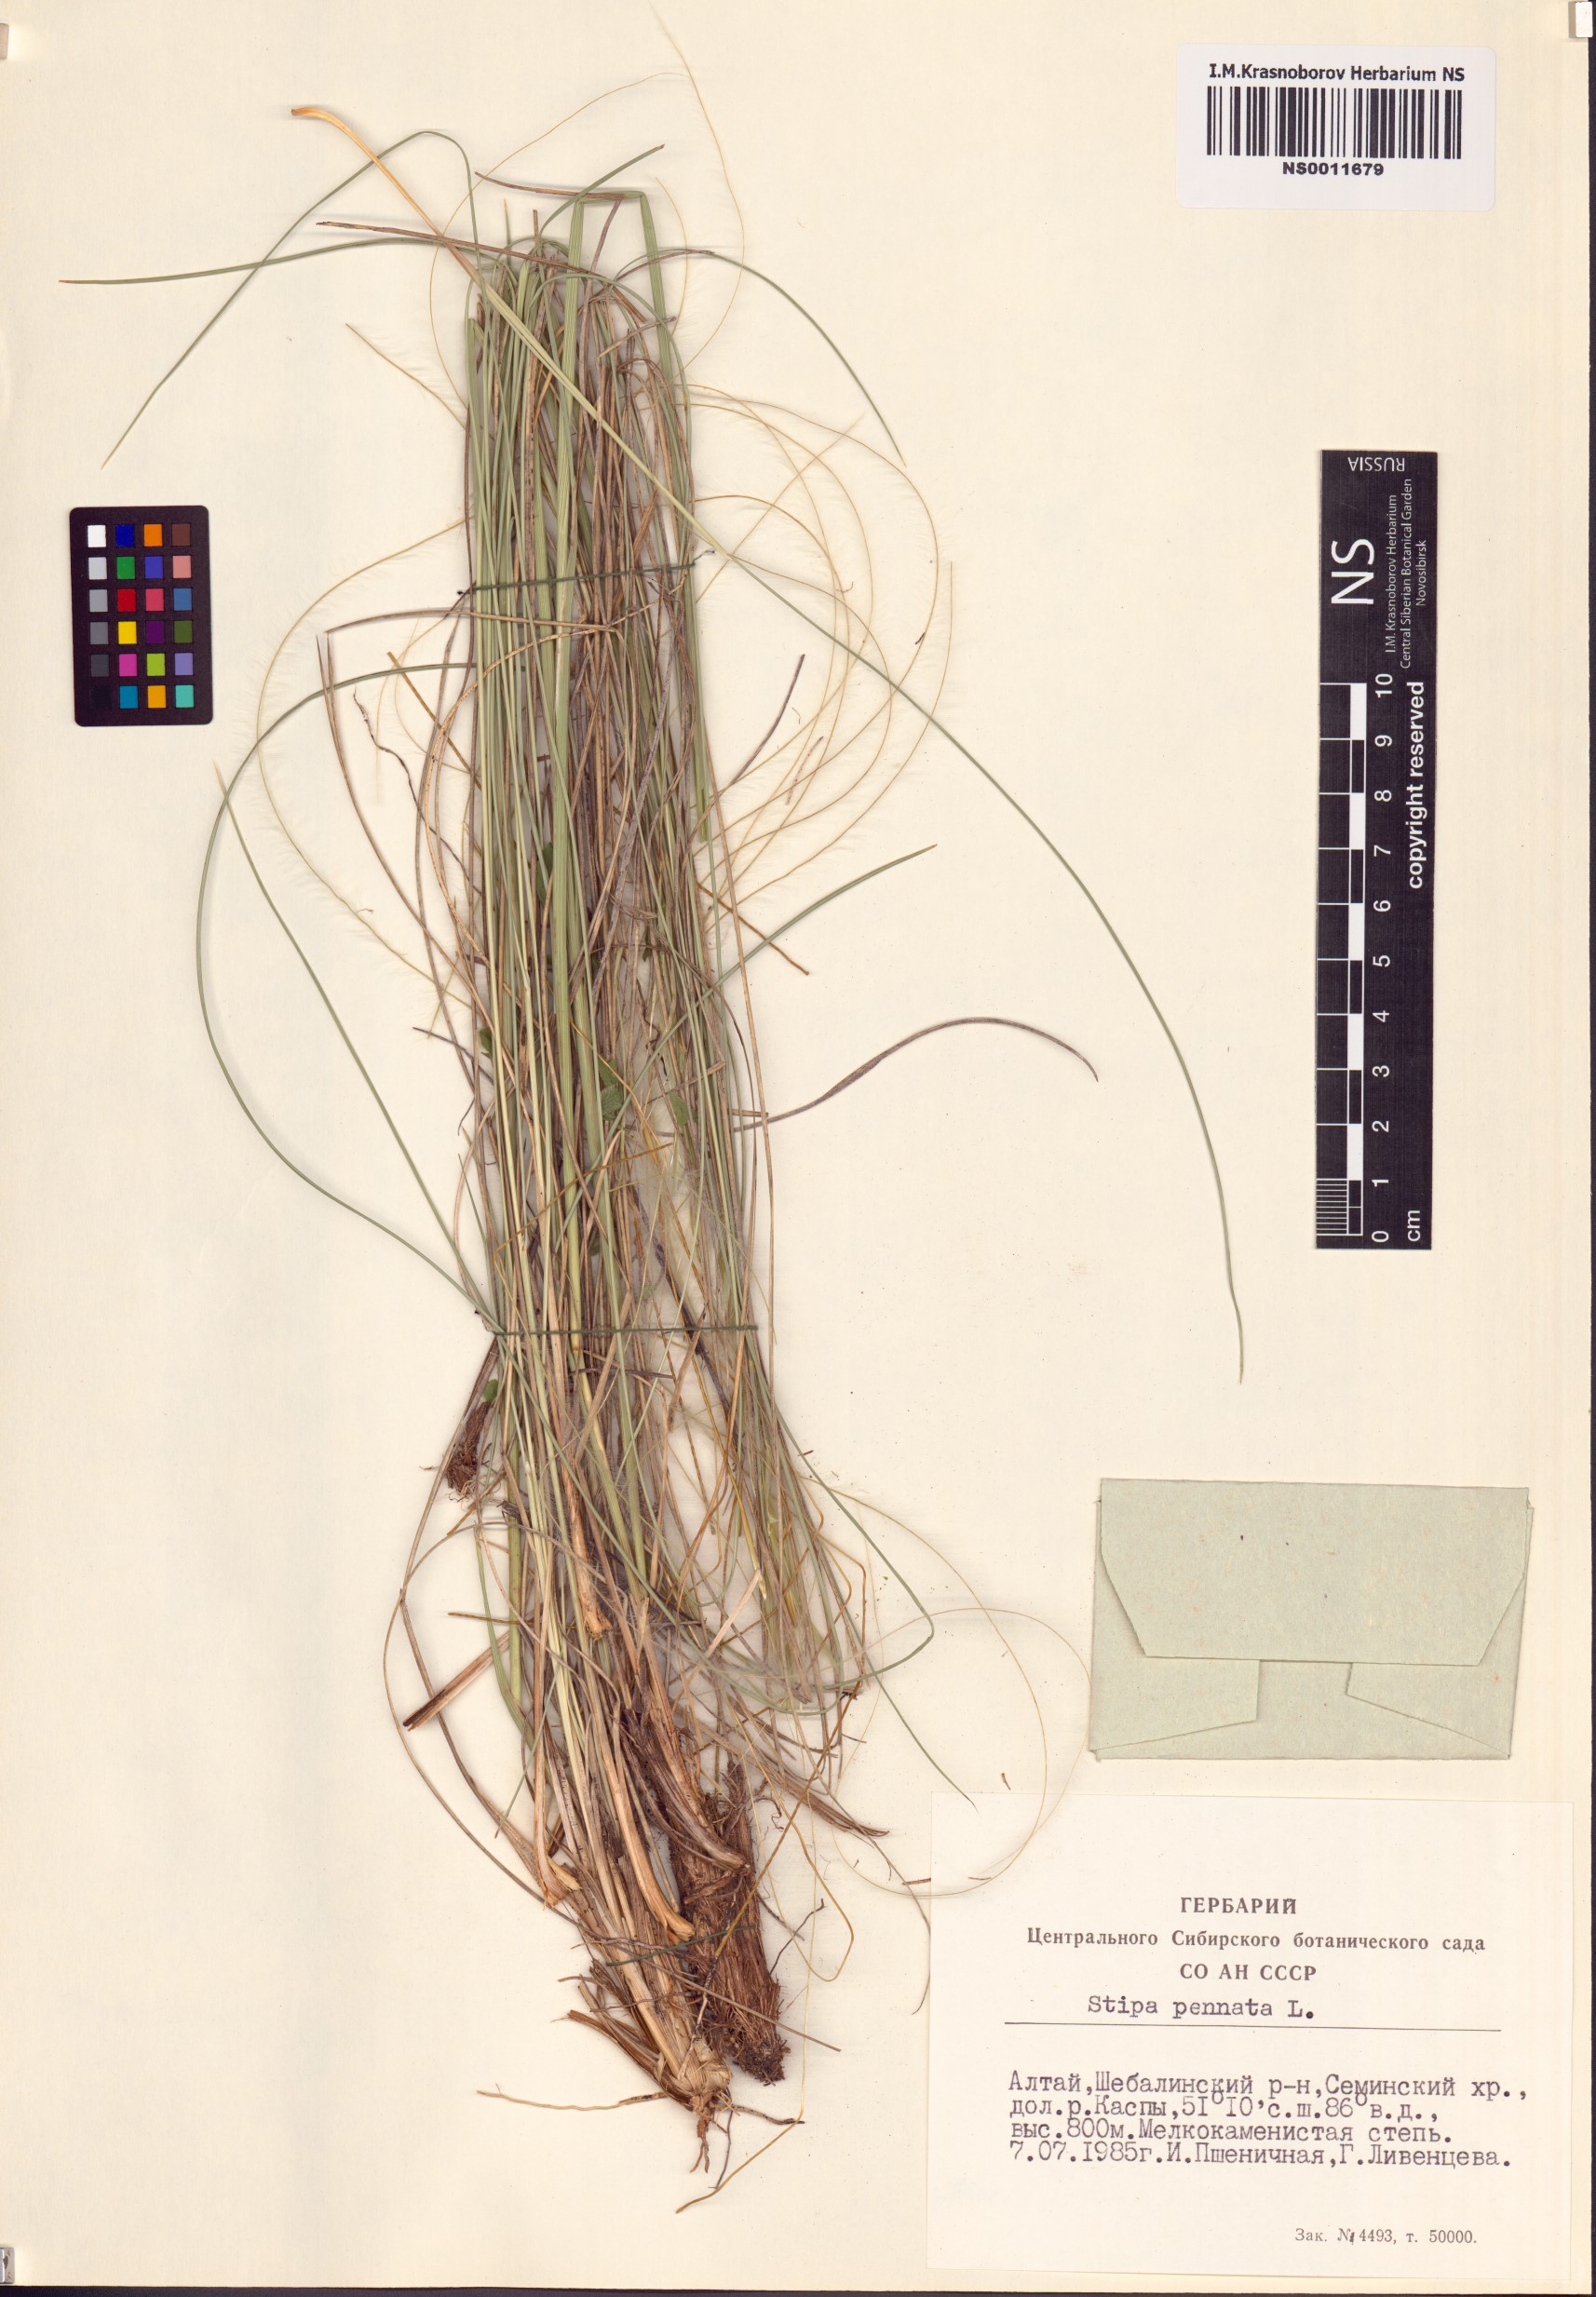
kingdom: Plantae
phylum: Tracheophyta
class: Liliopsida
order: Poales
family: Poaceae
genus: Stipa
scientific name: Stipa pennata
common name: European feather grass
